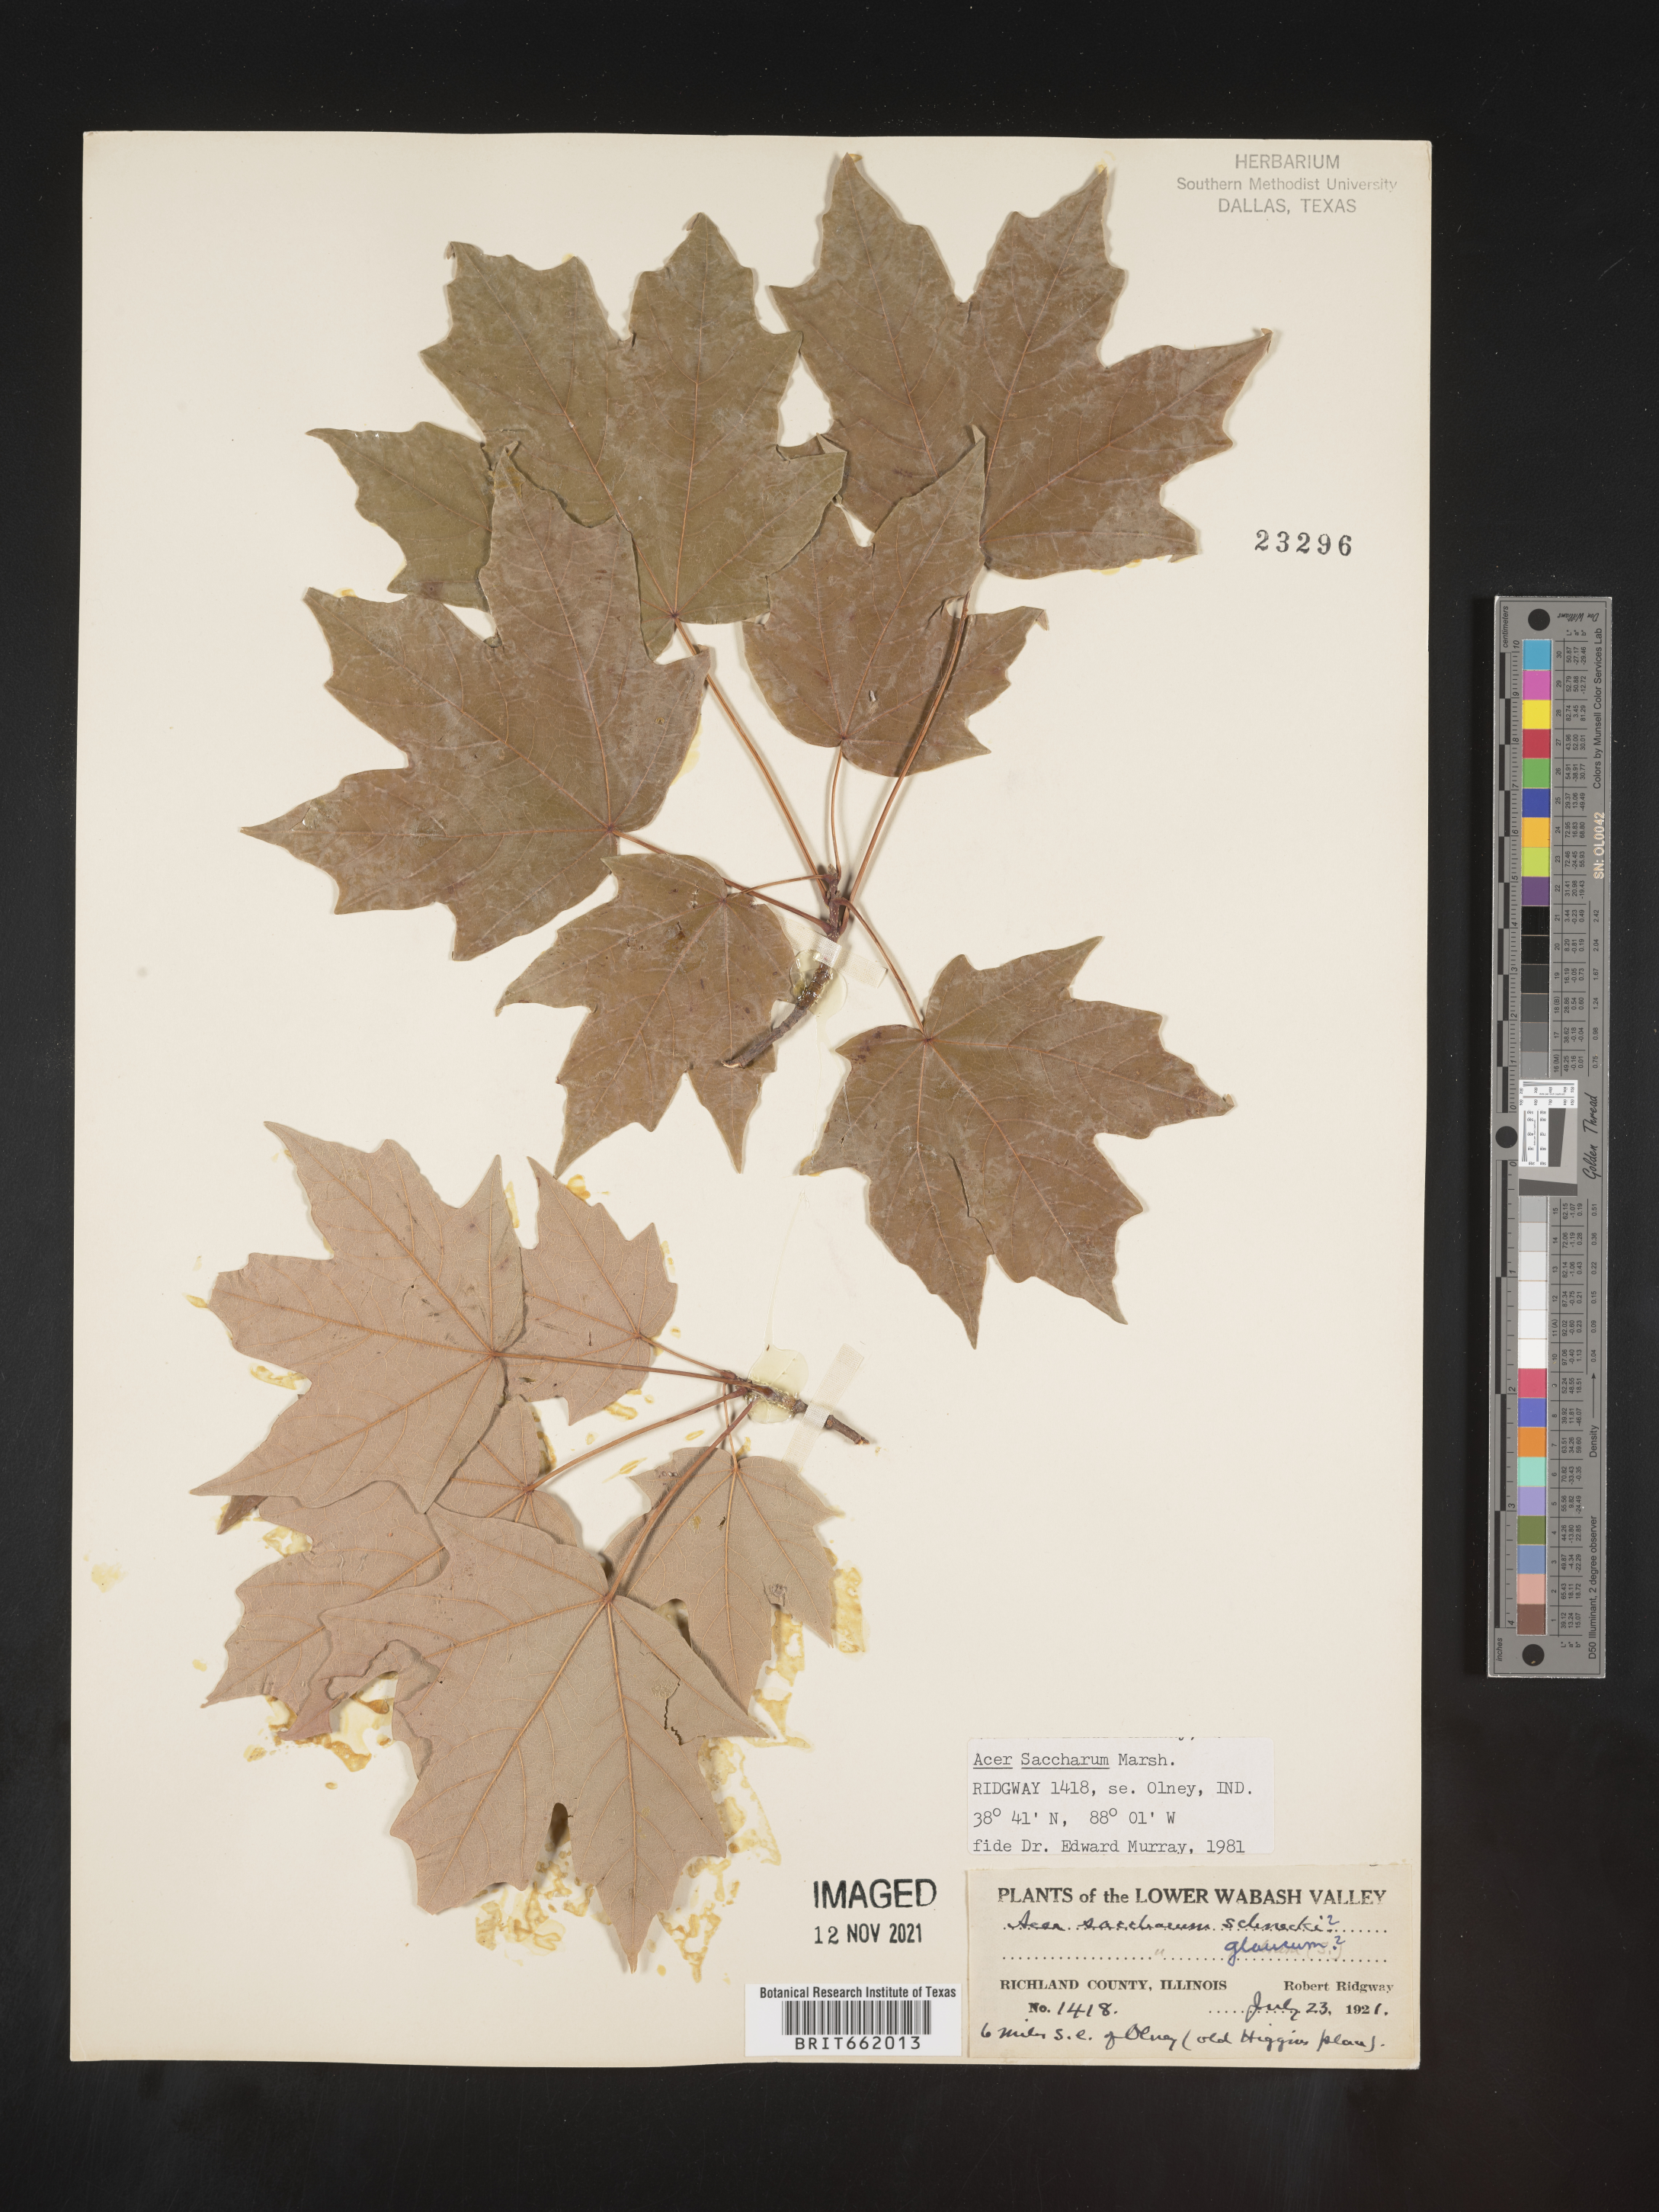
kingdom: Plantae
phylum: Tracheophyta
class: Magnoliopsida
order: Sapindales
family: Sapindaceae
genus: Acer
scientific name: Acer saccharum
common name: Sugar maple
